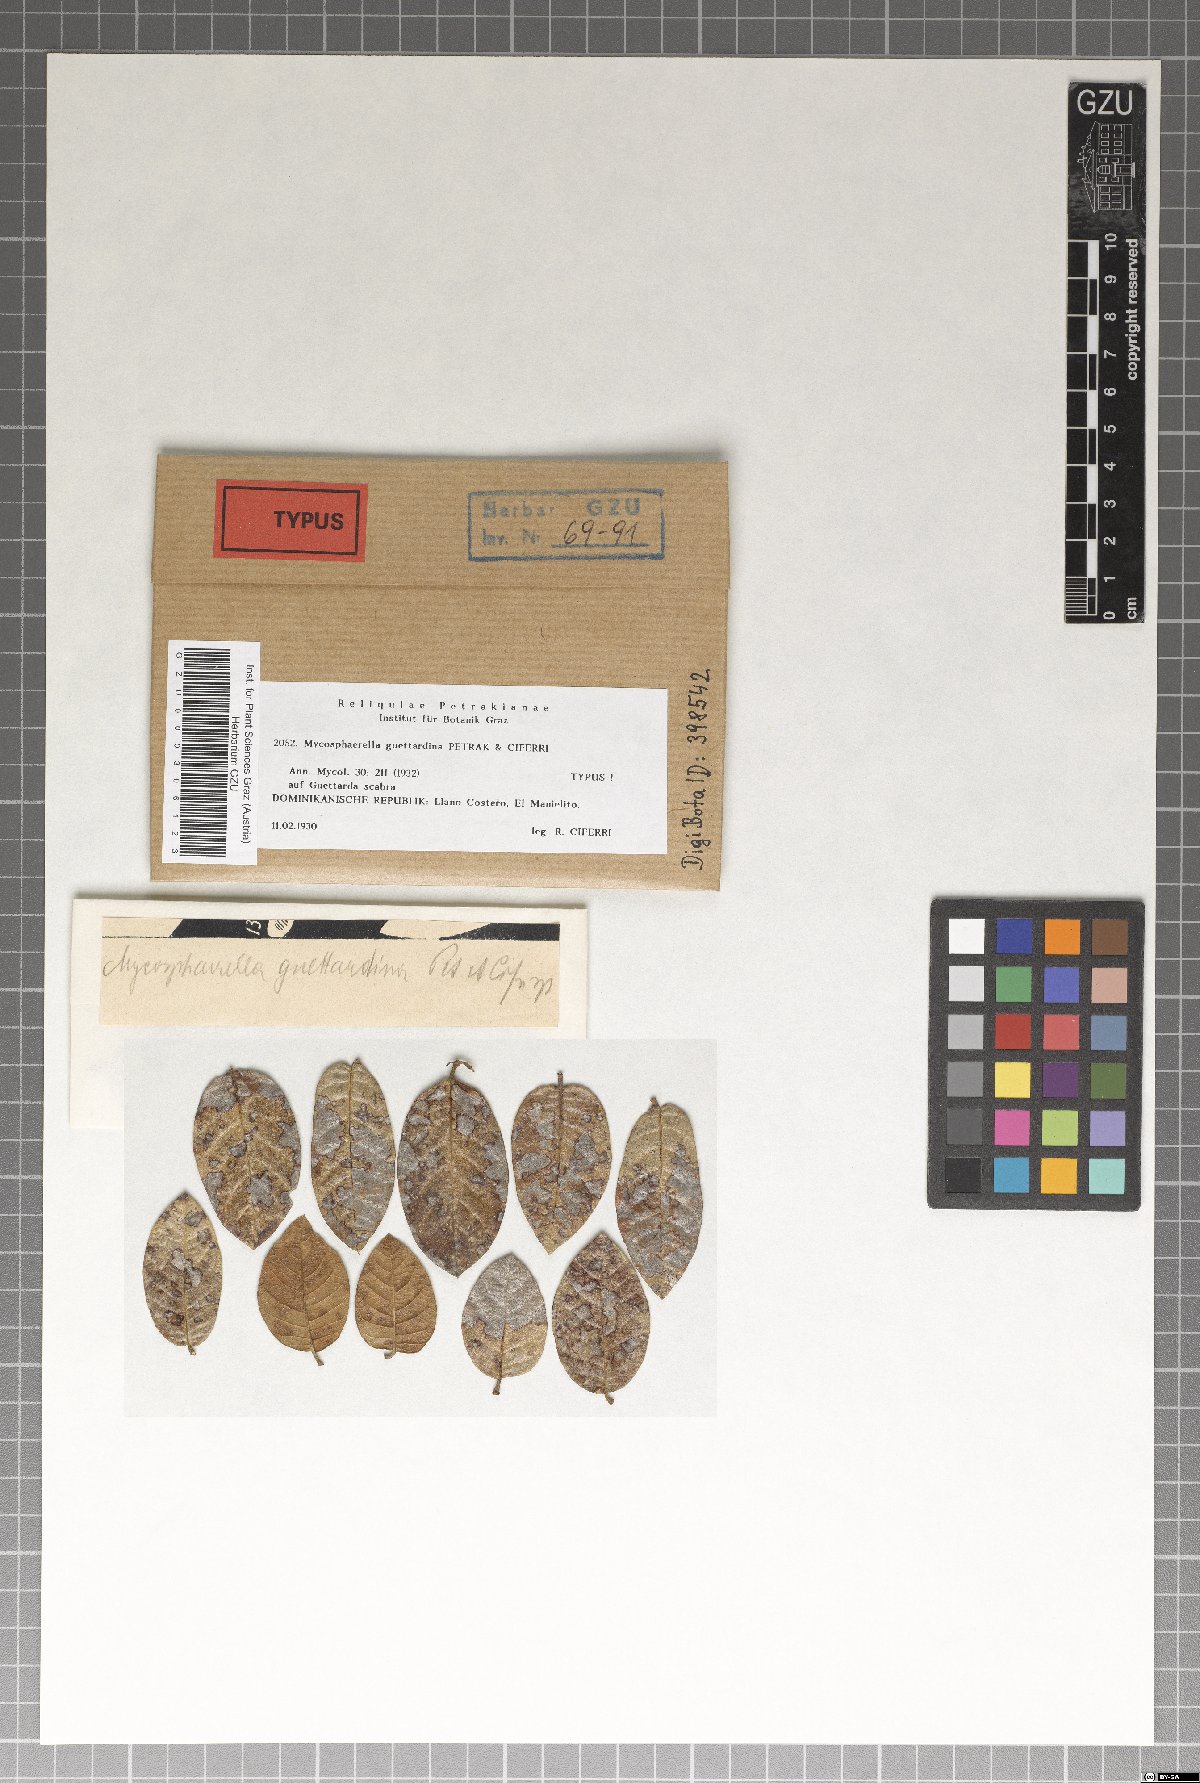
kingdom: Fungi
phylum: Ascomycota
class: Dothideomycetes
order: Mycosphaerellales
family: Mycosphaerellaceae
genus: Mycosphaerella
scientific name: Mycosphaerella guettardina
